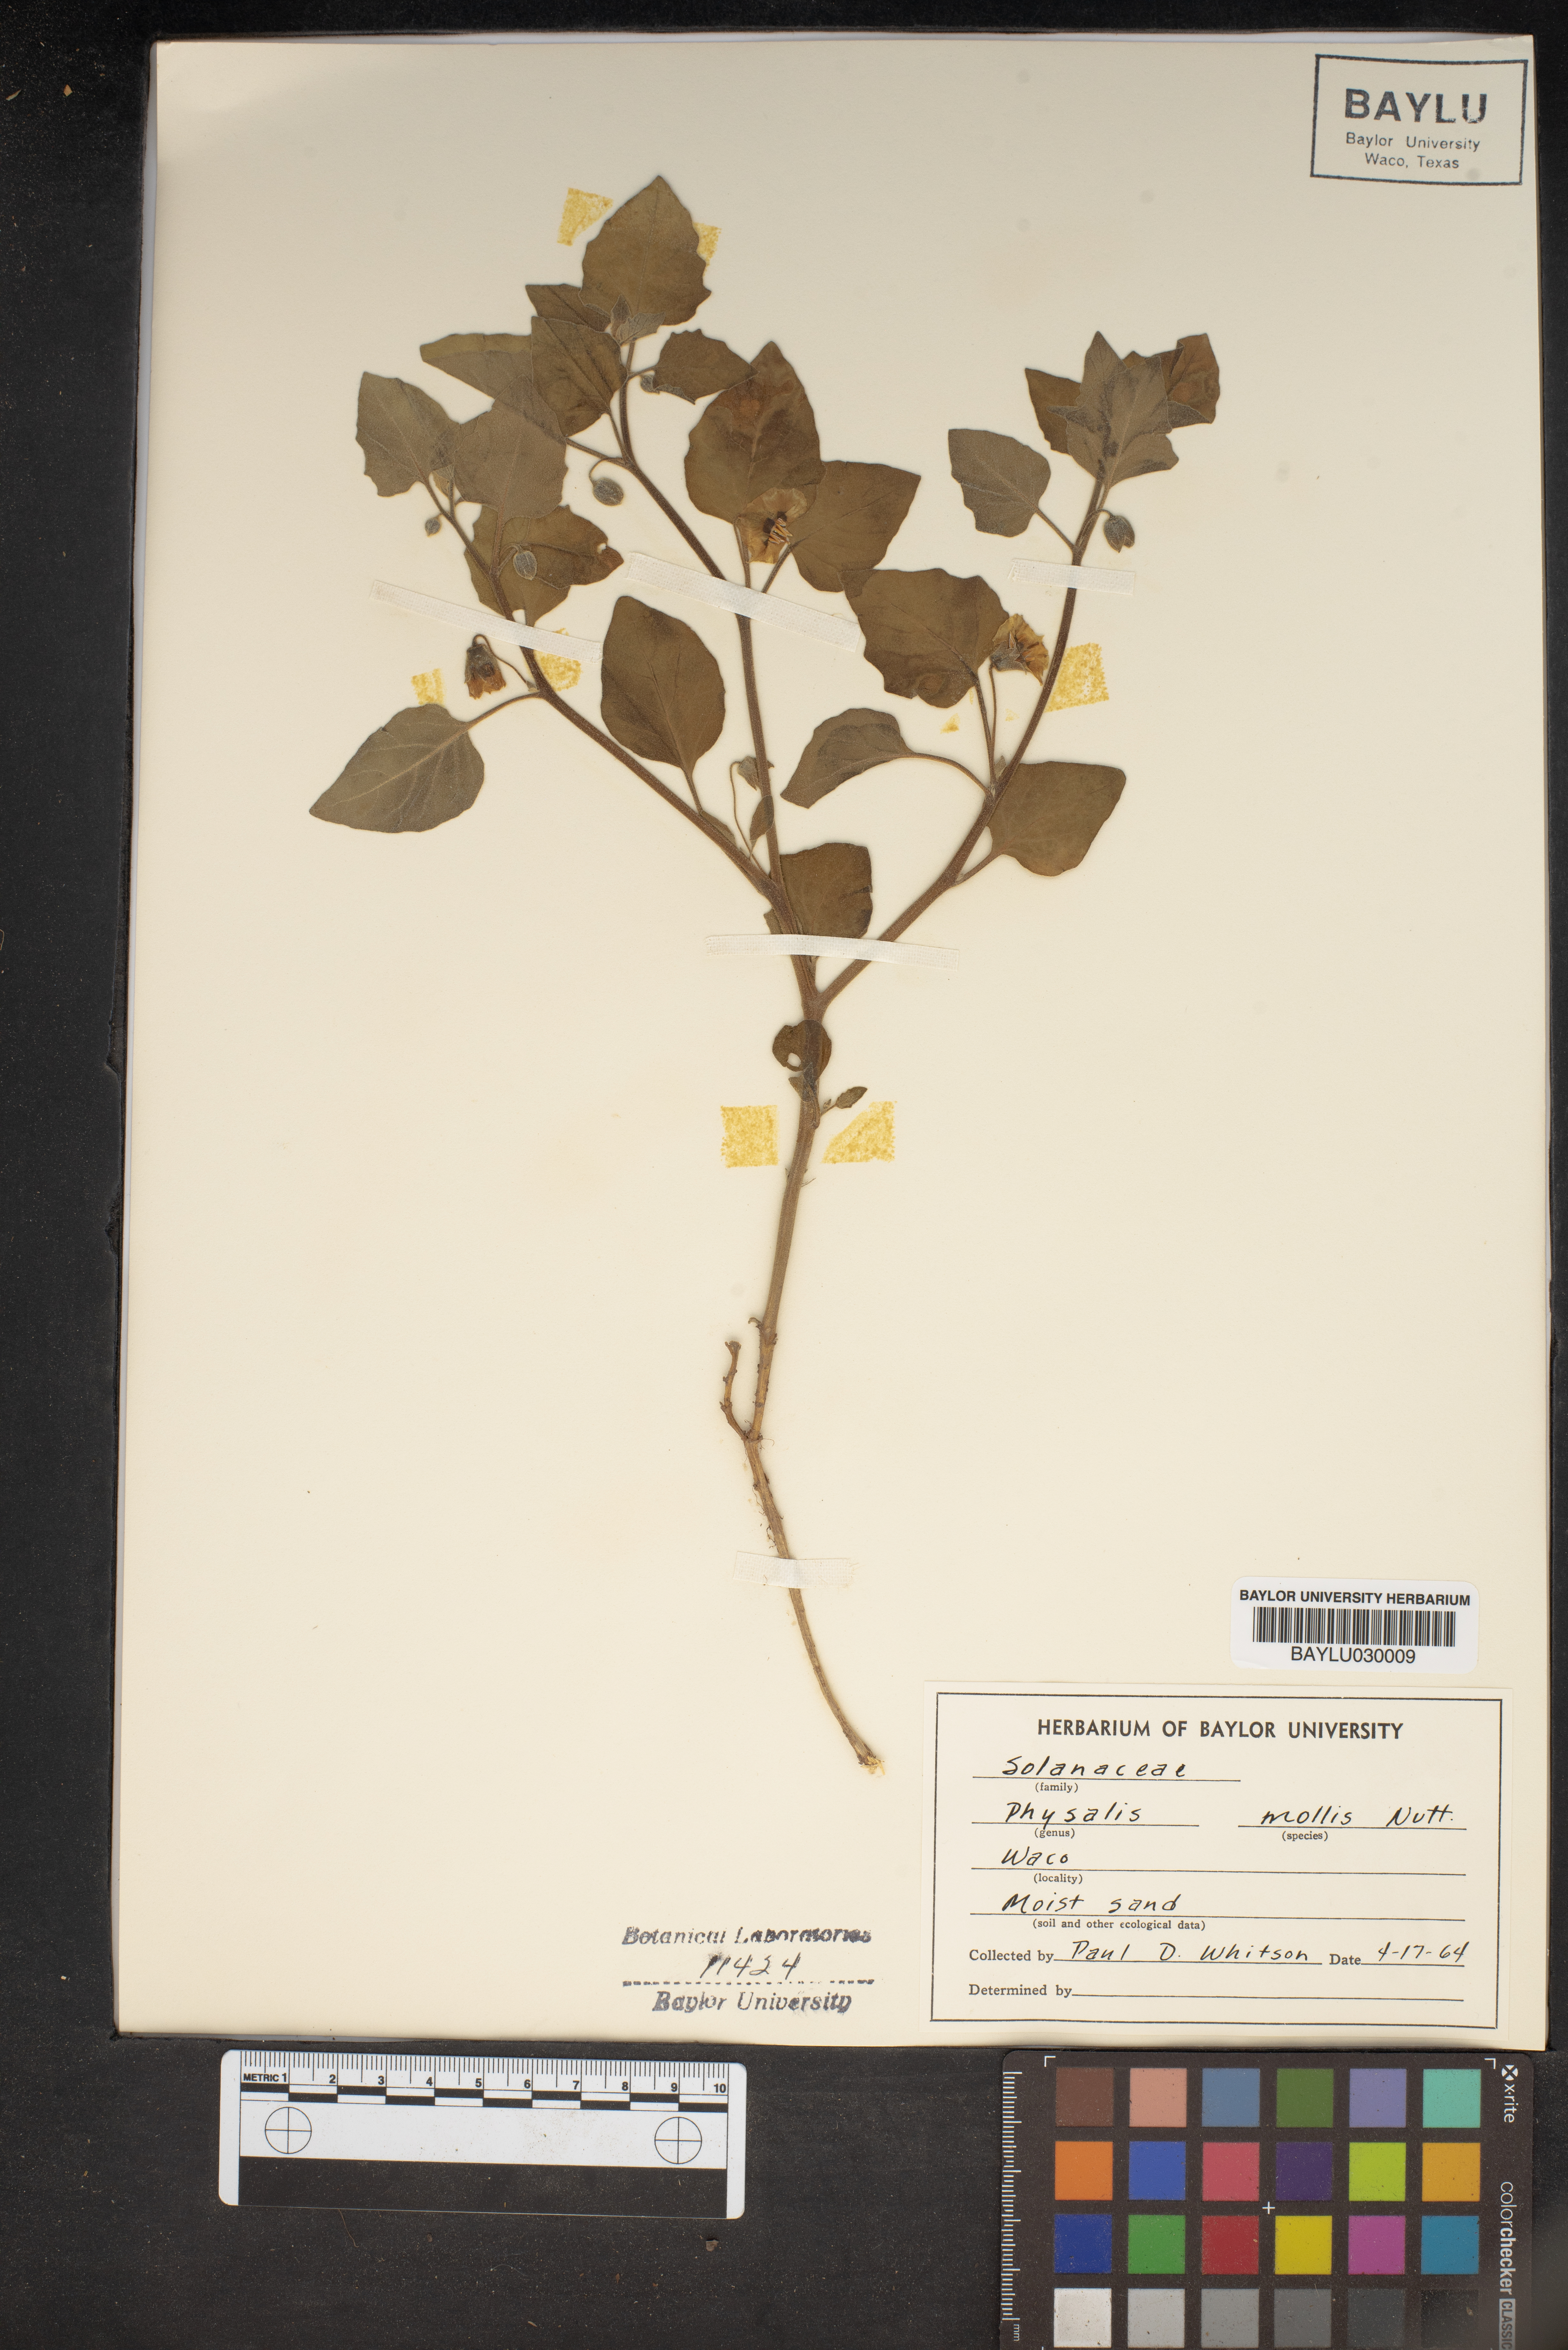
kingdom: Plantae
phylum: Tracheophyta
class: Magnoliopsida
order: Solanales
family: Solanaceae
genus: Physalis
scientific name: Physalis mollis
